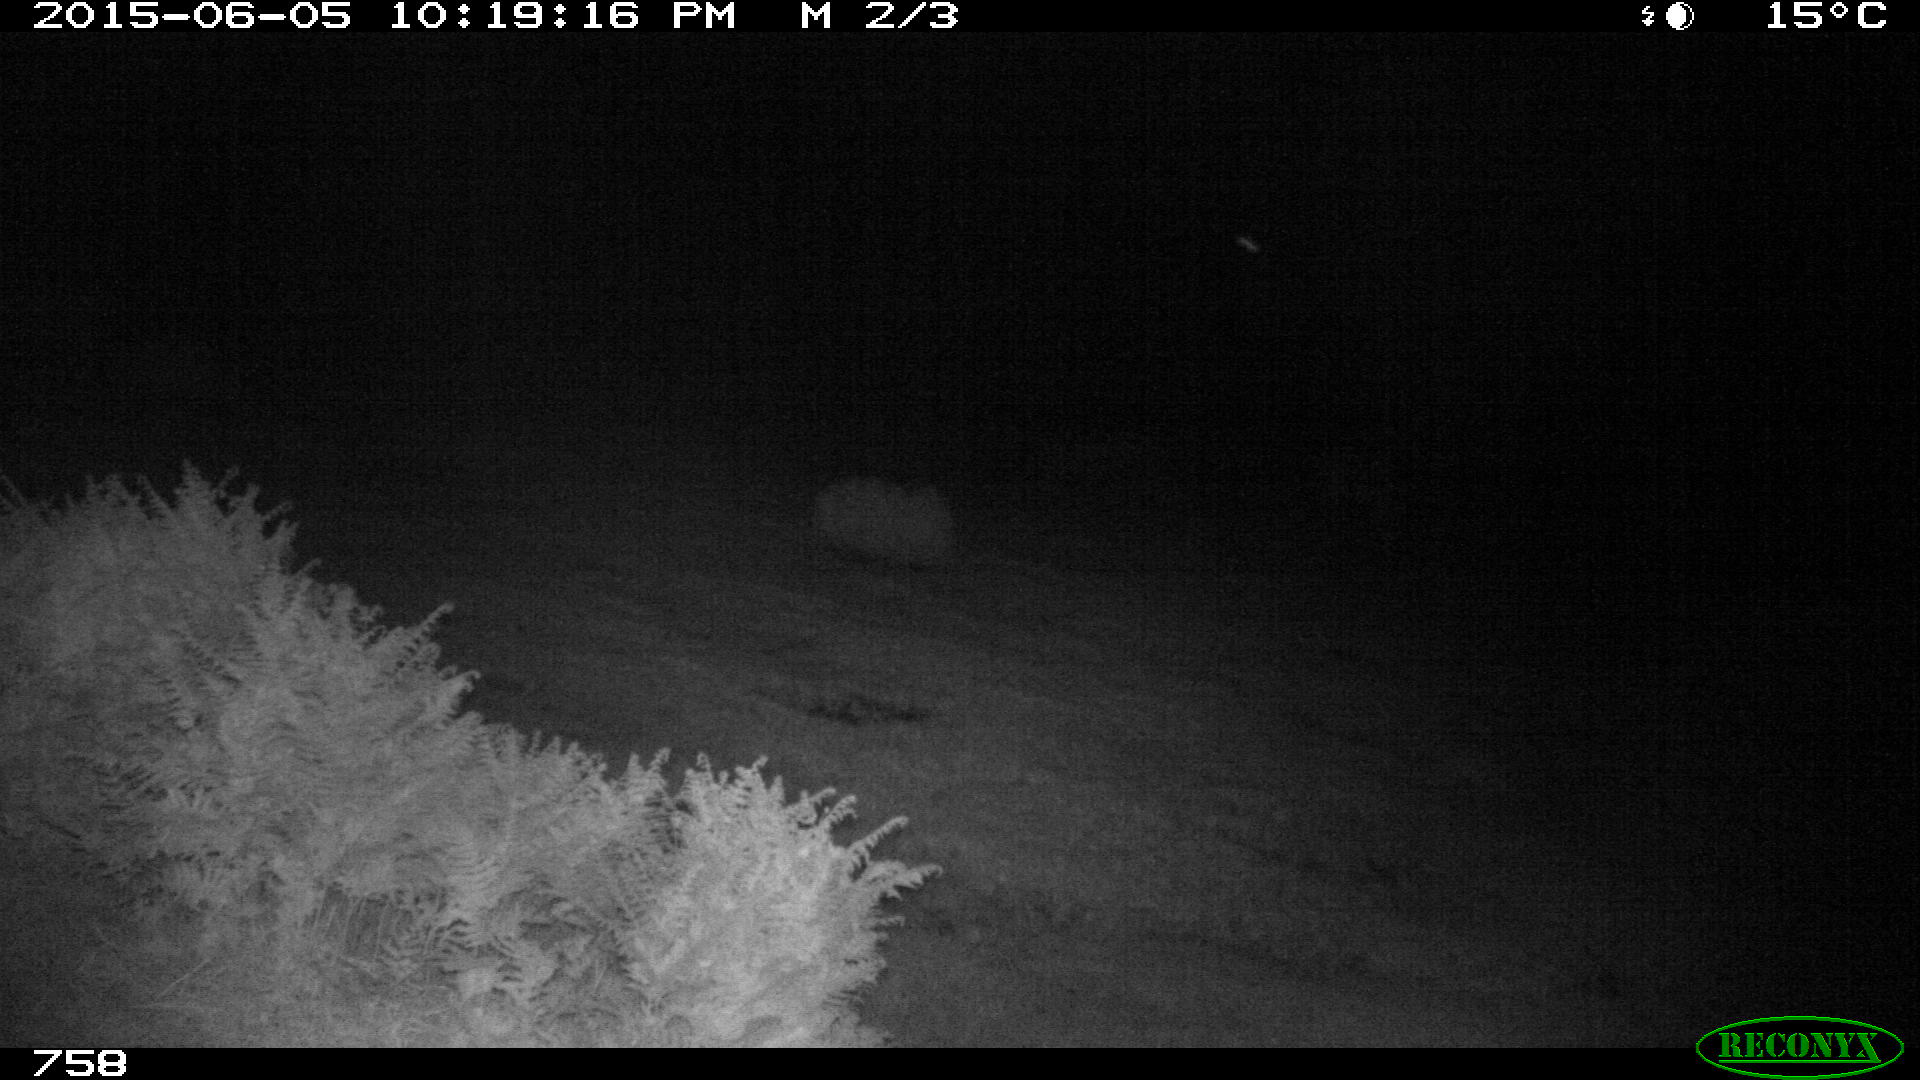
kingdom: Animalia
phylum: Chordata
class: Mammalia
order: Artiodactyla
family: Bovidae
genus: Bos
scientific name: Bos taurus
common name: Domesticated cattle
